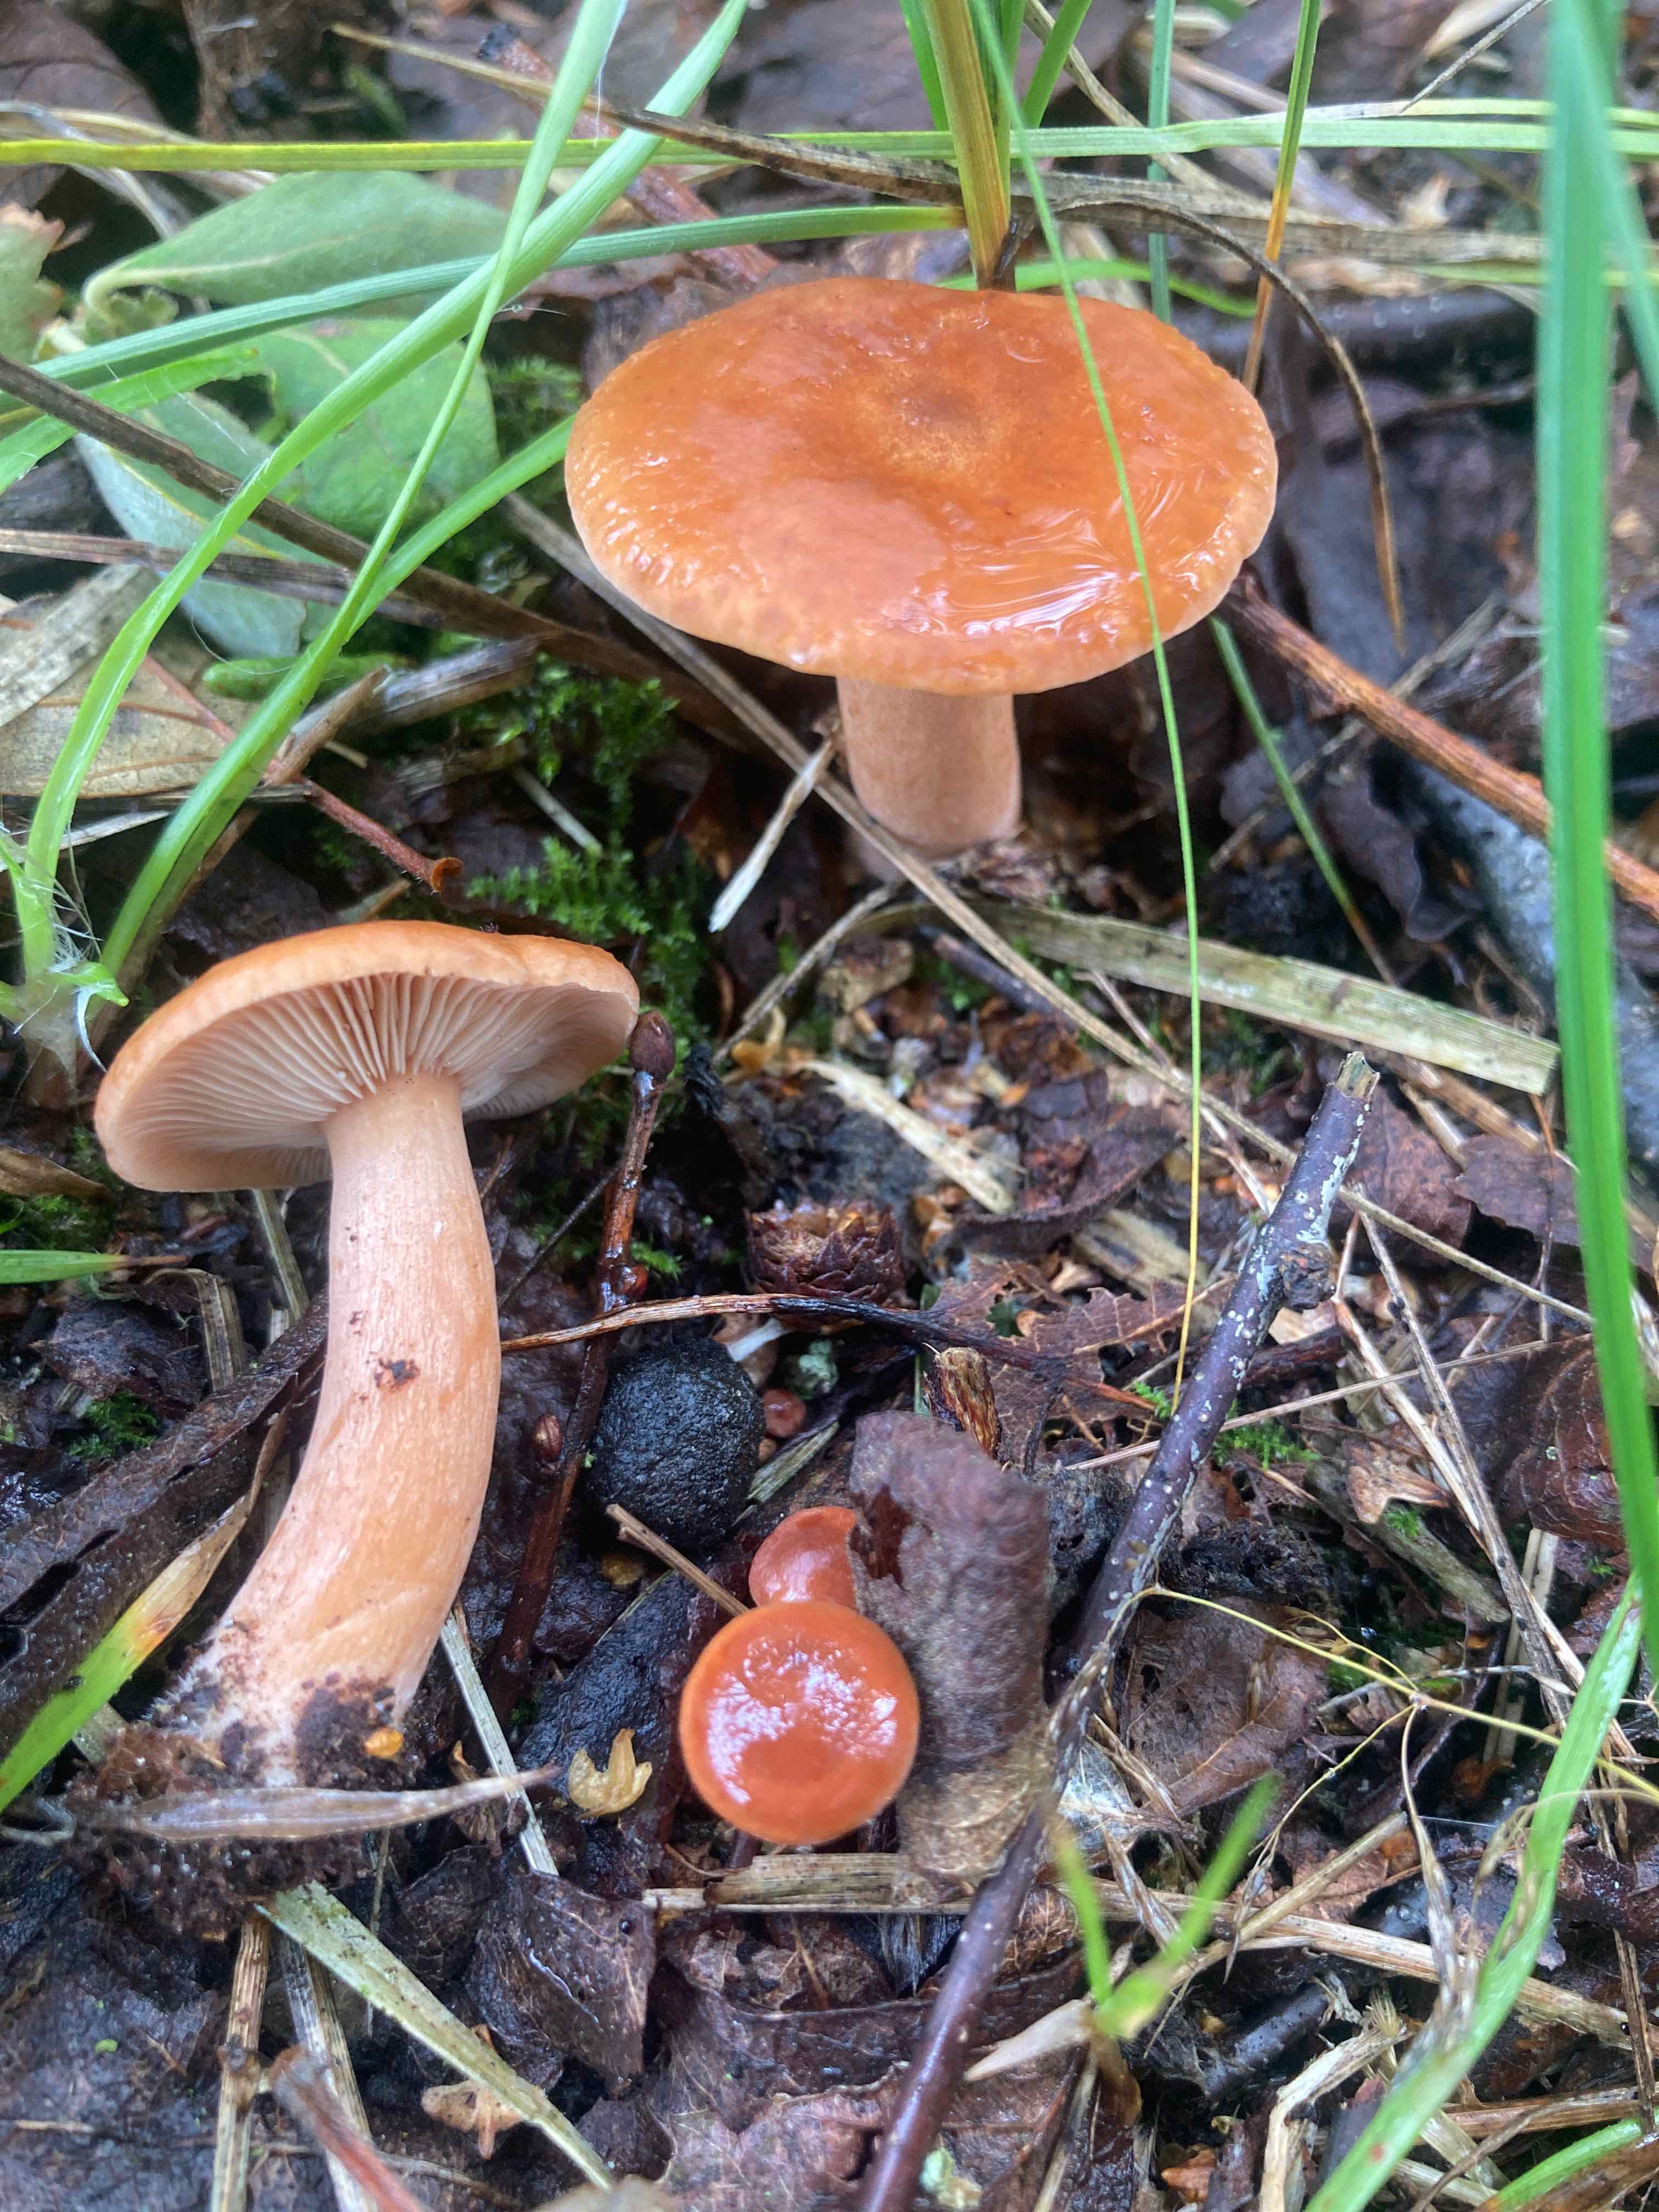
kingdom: Fungi
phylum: Basidiomycota
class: Agaricomycetes
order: Russulales
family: Russulaceae
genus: Lactarius
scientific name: Lactarius tabidus
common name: rynket mælkehat
